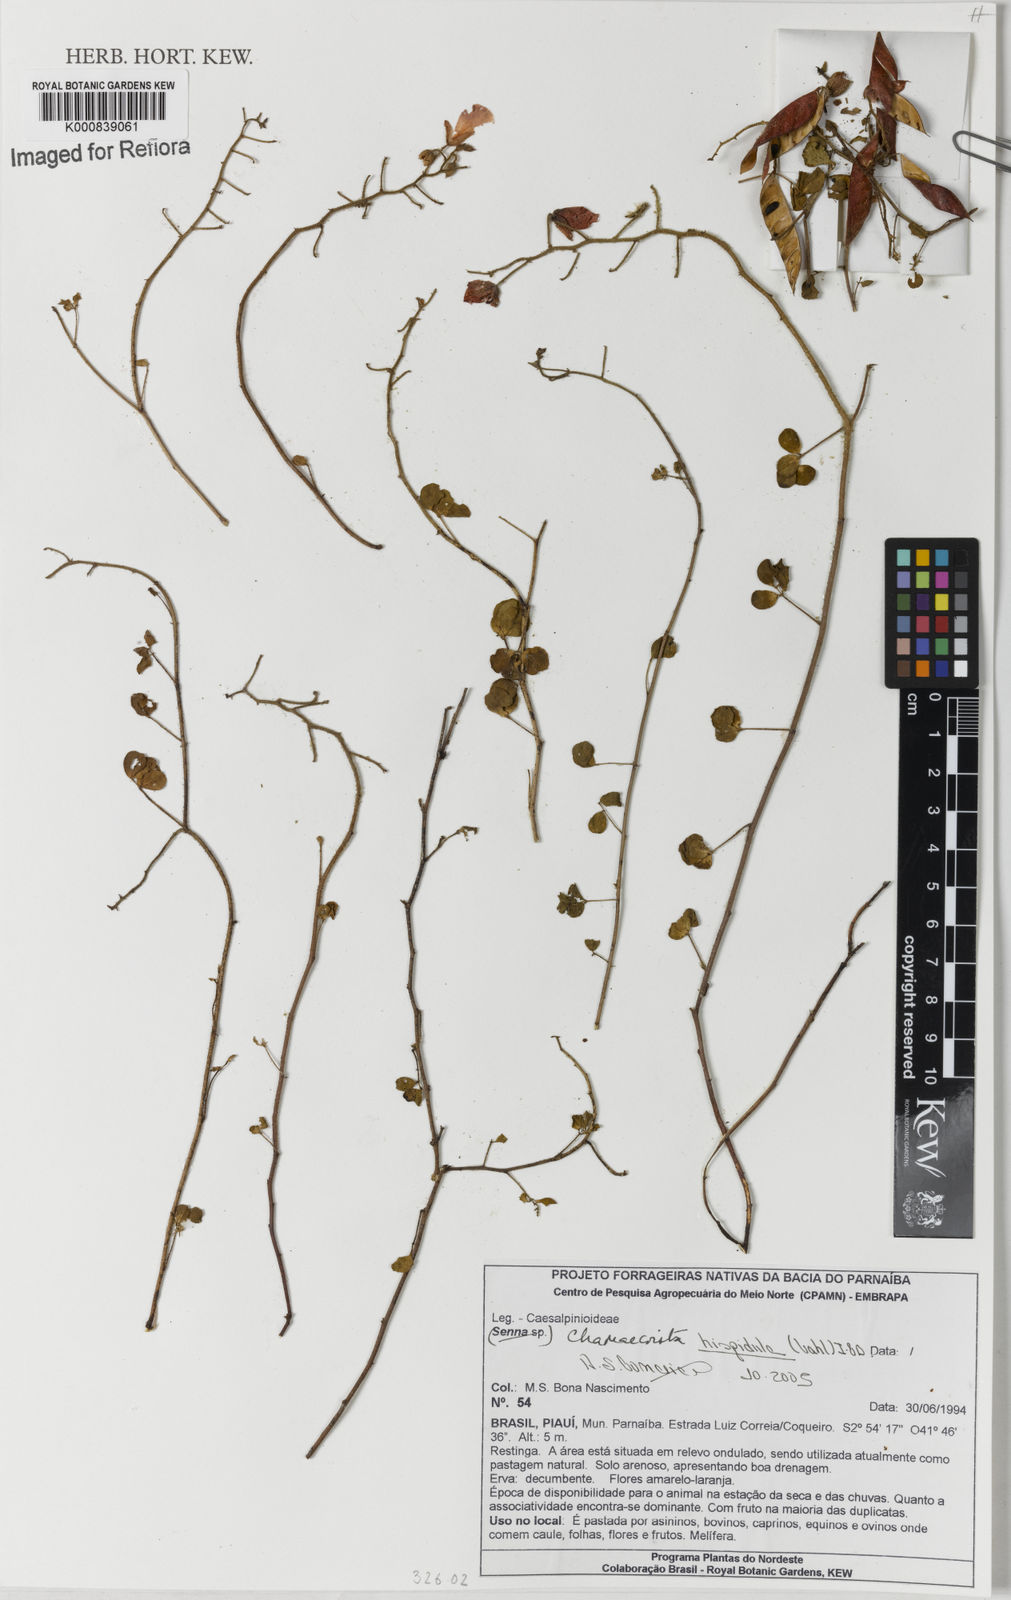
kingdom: Plantae
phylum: Tracheophyta
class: Magnoliopsida
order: Fabales
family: Fabaceae
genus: Chamaecrista
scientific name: Chamaecrista hispidula
